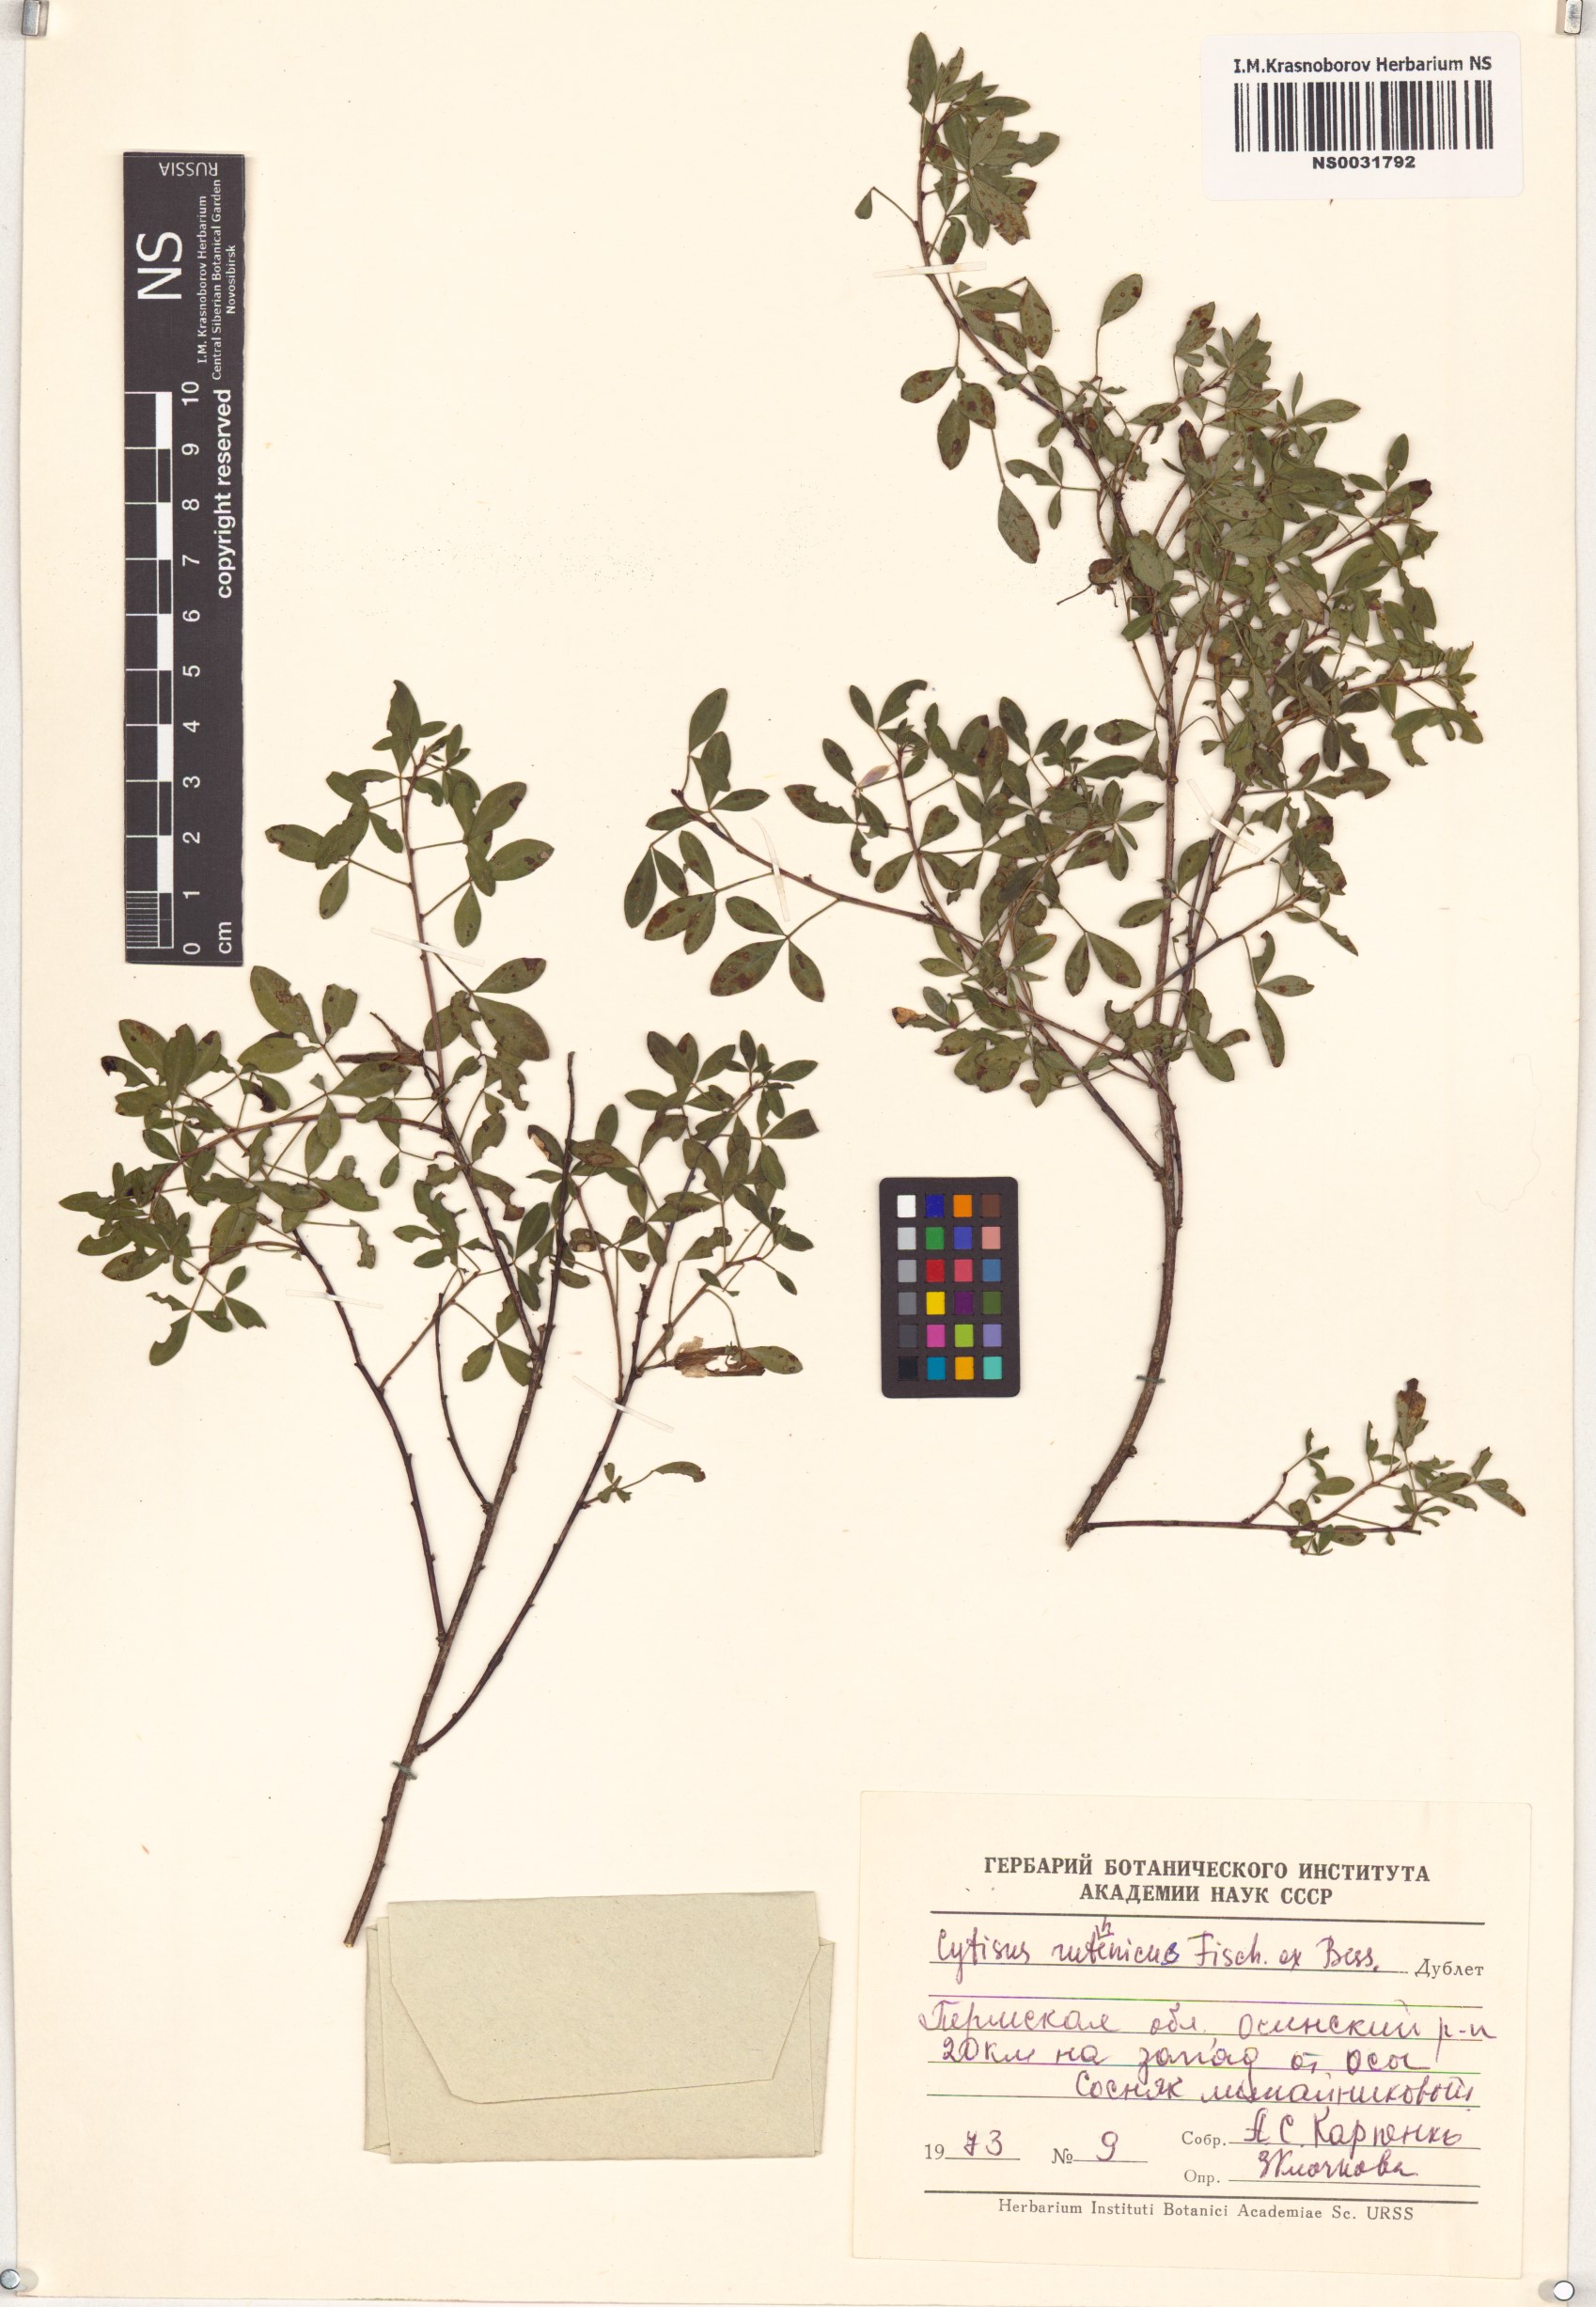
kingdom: Plantae
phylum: Tracheophyta
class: Magnoliopsida
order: Fabales
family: Fabaceae
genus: Chamaecytisus
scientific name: Chamaecytisus ruthenicus
